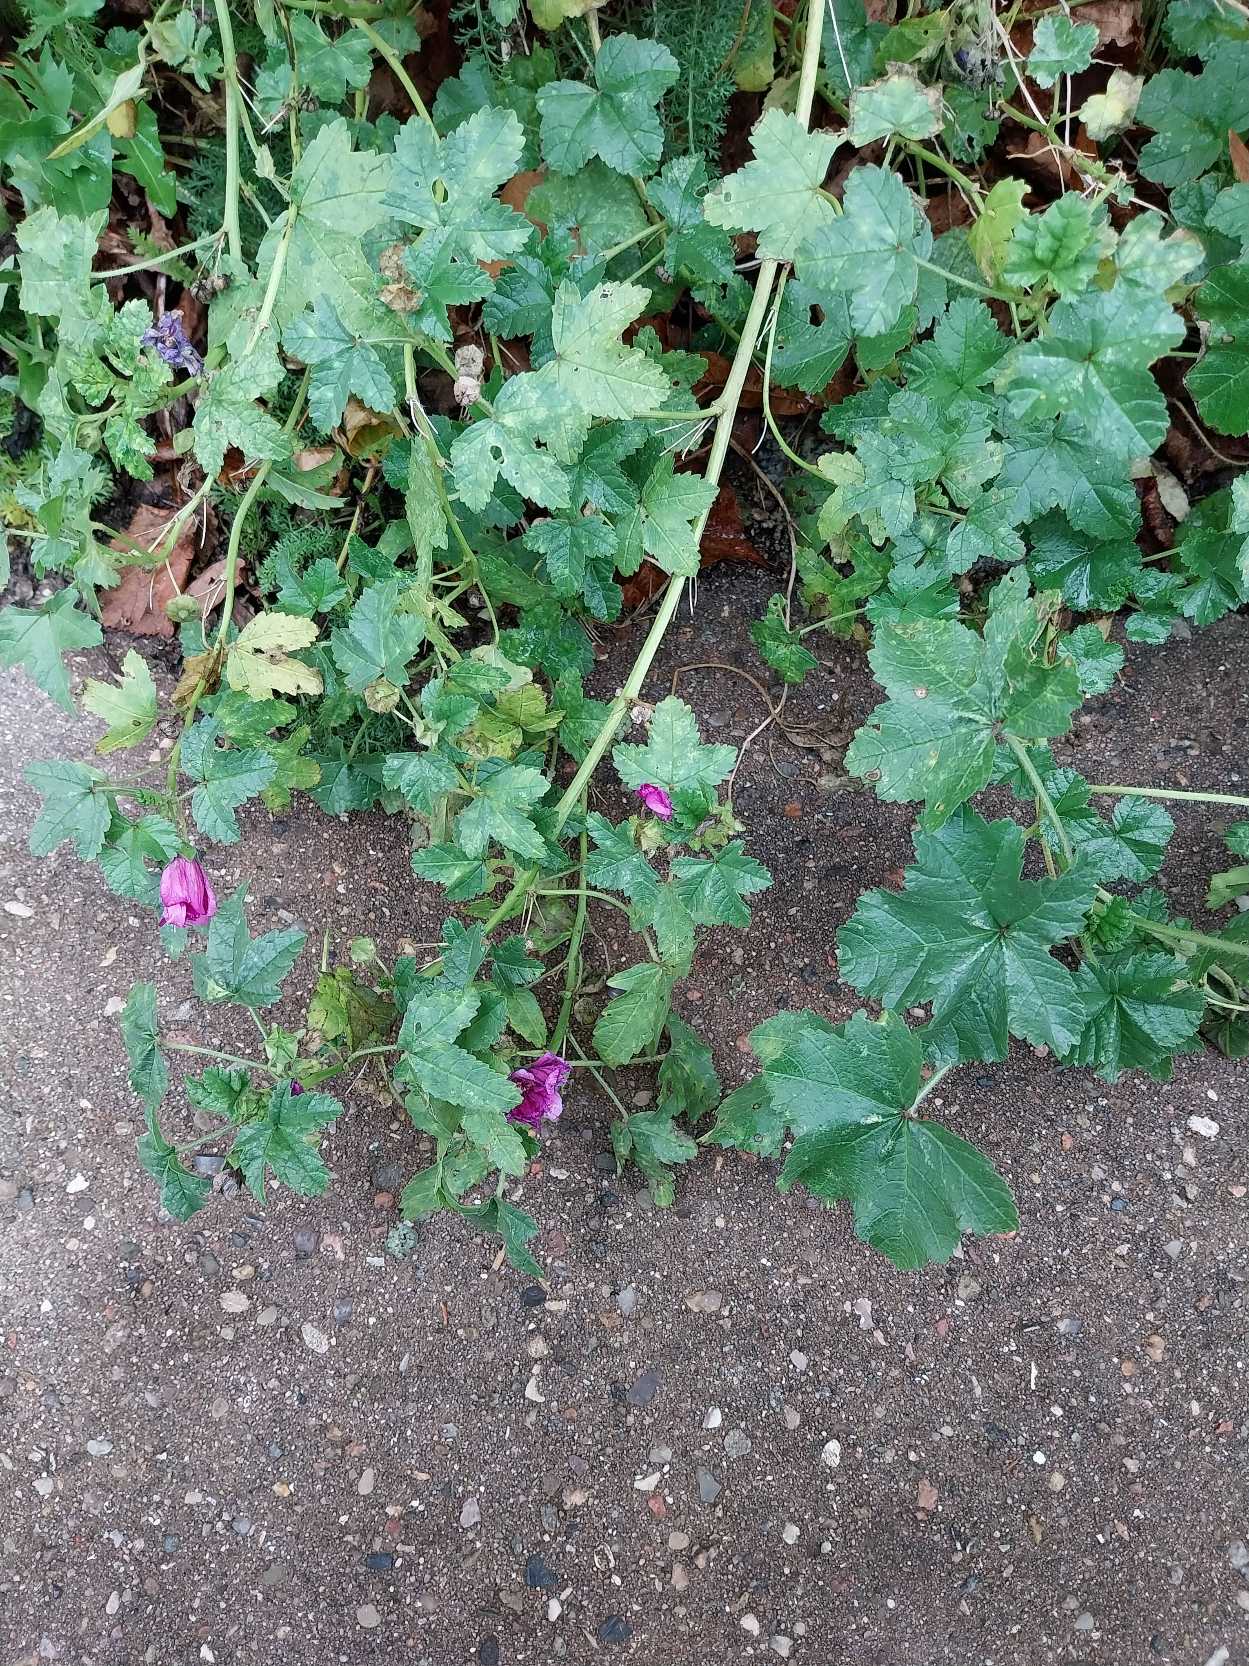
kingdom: Plantae
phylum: Tracheophyta
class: Magnoliopsida
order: Malvales
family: Malvaceae
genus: Malva
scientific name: Malva sylvestris
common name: Almindelig katost
